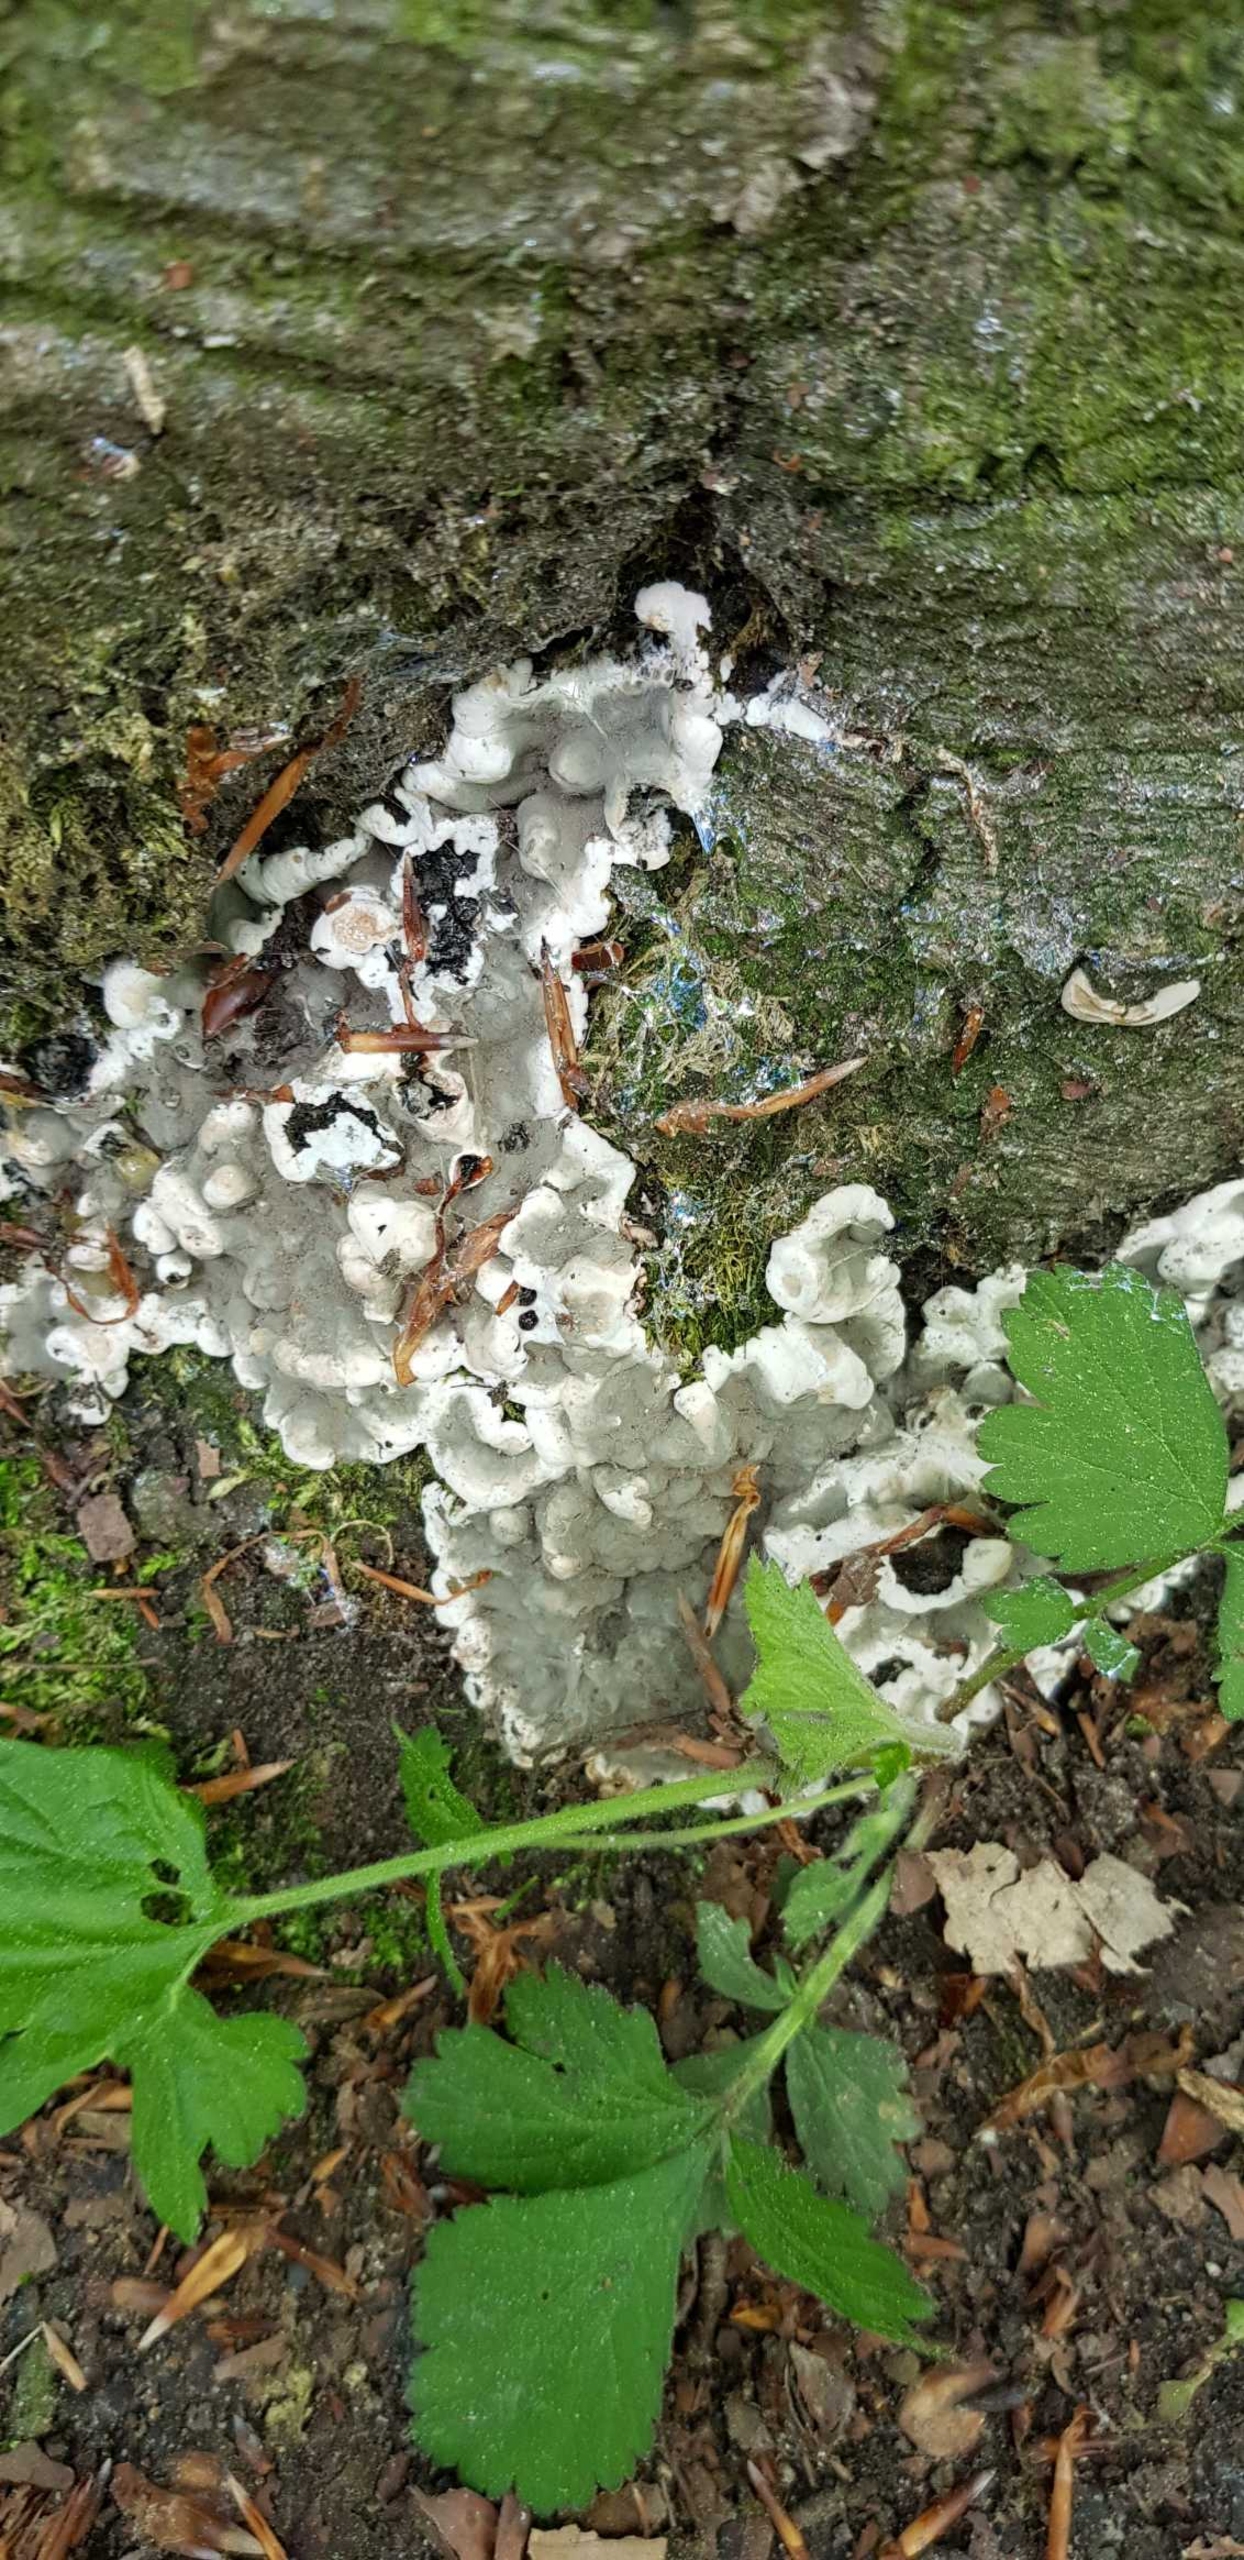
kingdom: Fungi
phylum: Ascomycota
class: Sordariomycetes
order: Xylariales
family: Xylariaceae
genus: Kretzschmaria
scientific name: Kretzschmaria deusta
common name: Stor kulsvamp
